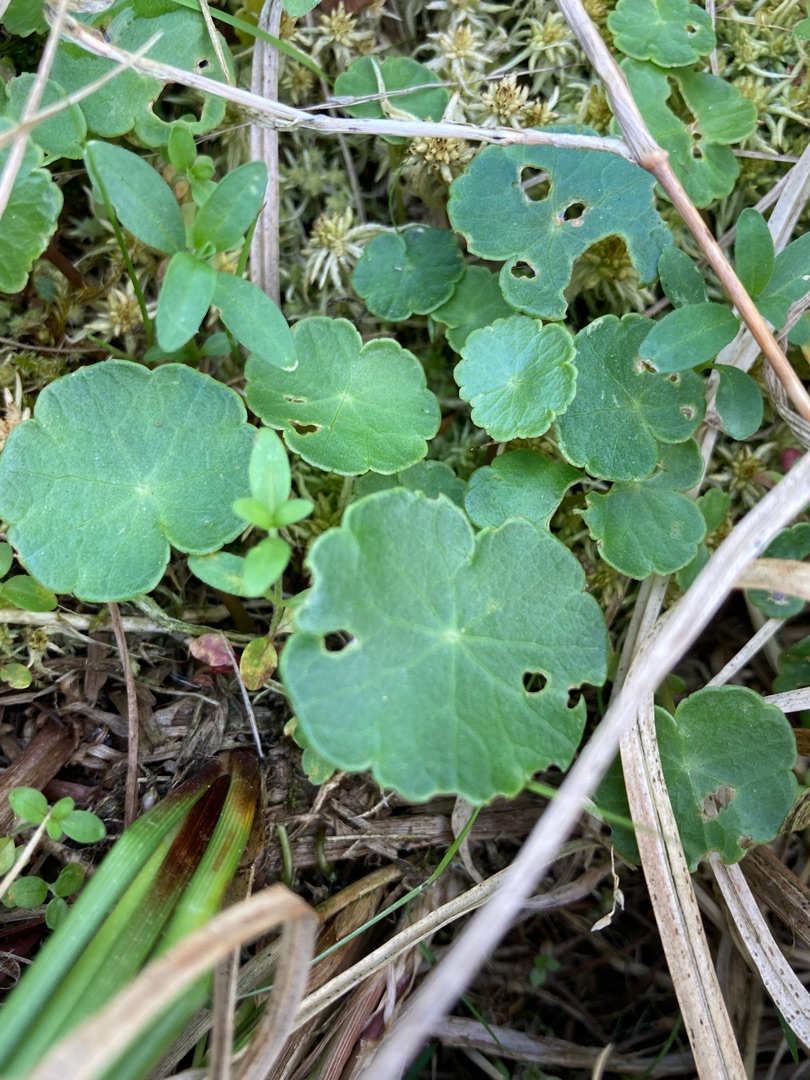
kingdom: Plantae
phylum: Tracheophyta
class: Magnoliopsida
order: Apiales
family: Araliaceae
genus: Hydrocotyle
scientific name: Hydrocotyle vulgaris
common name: Vandnavle
